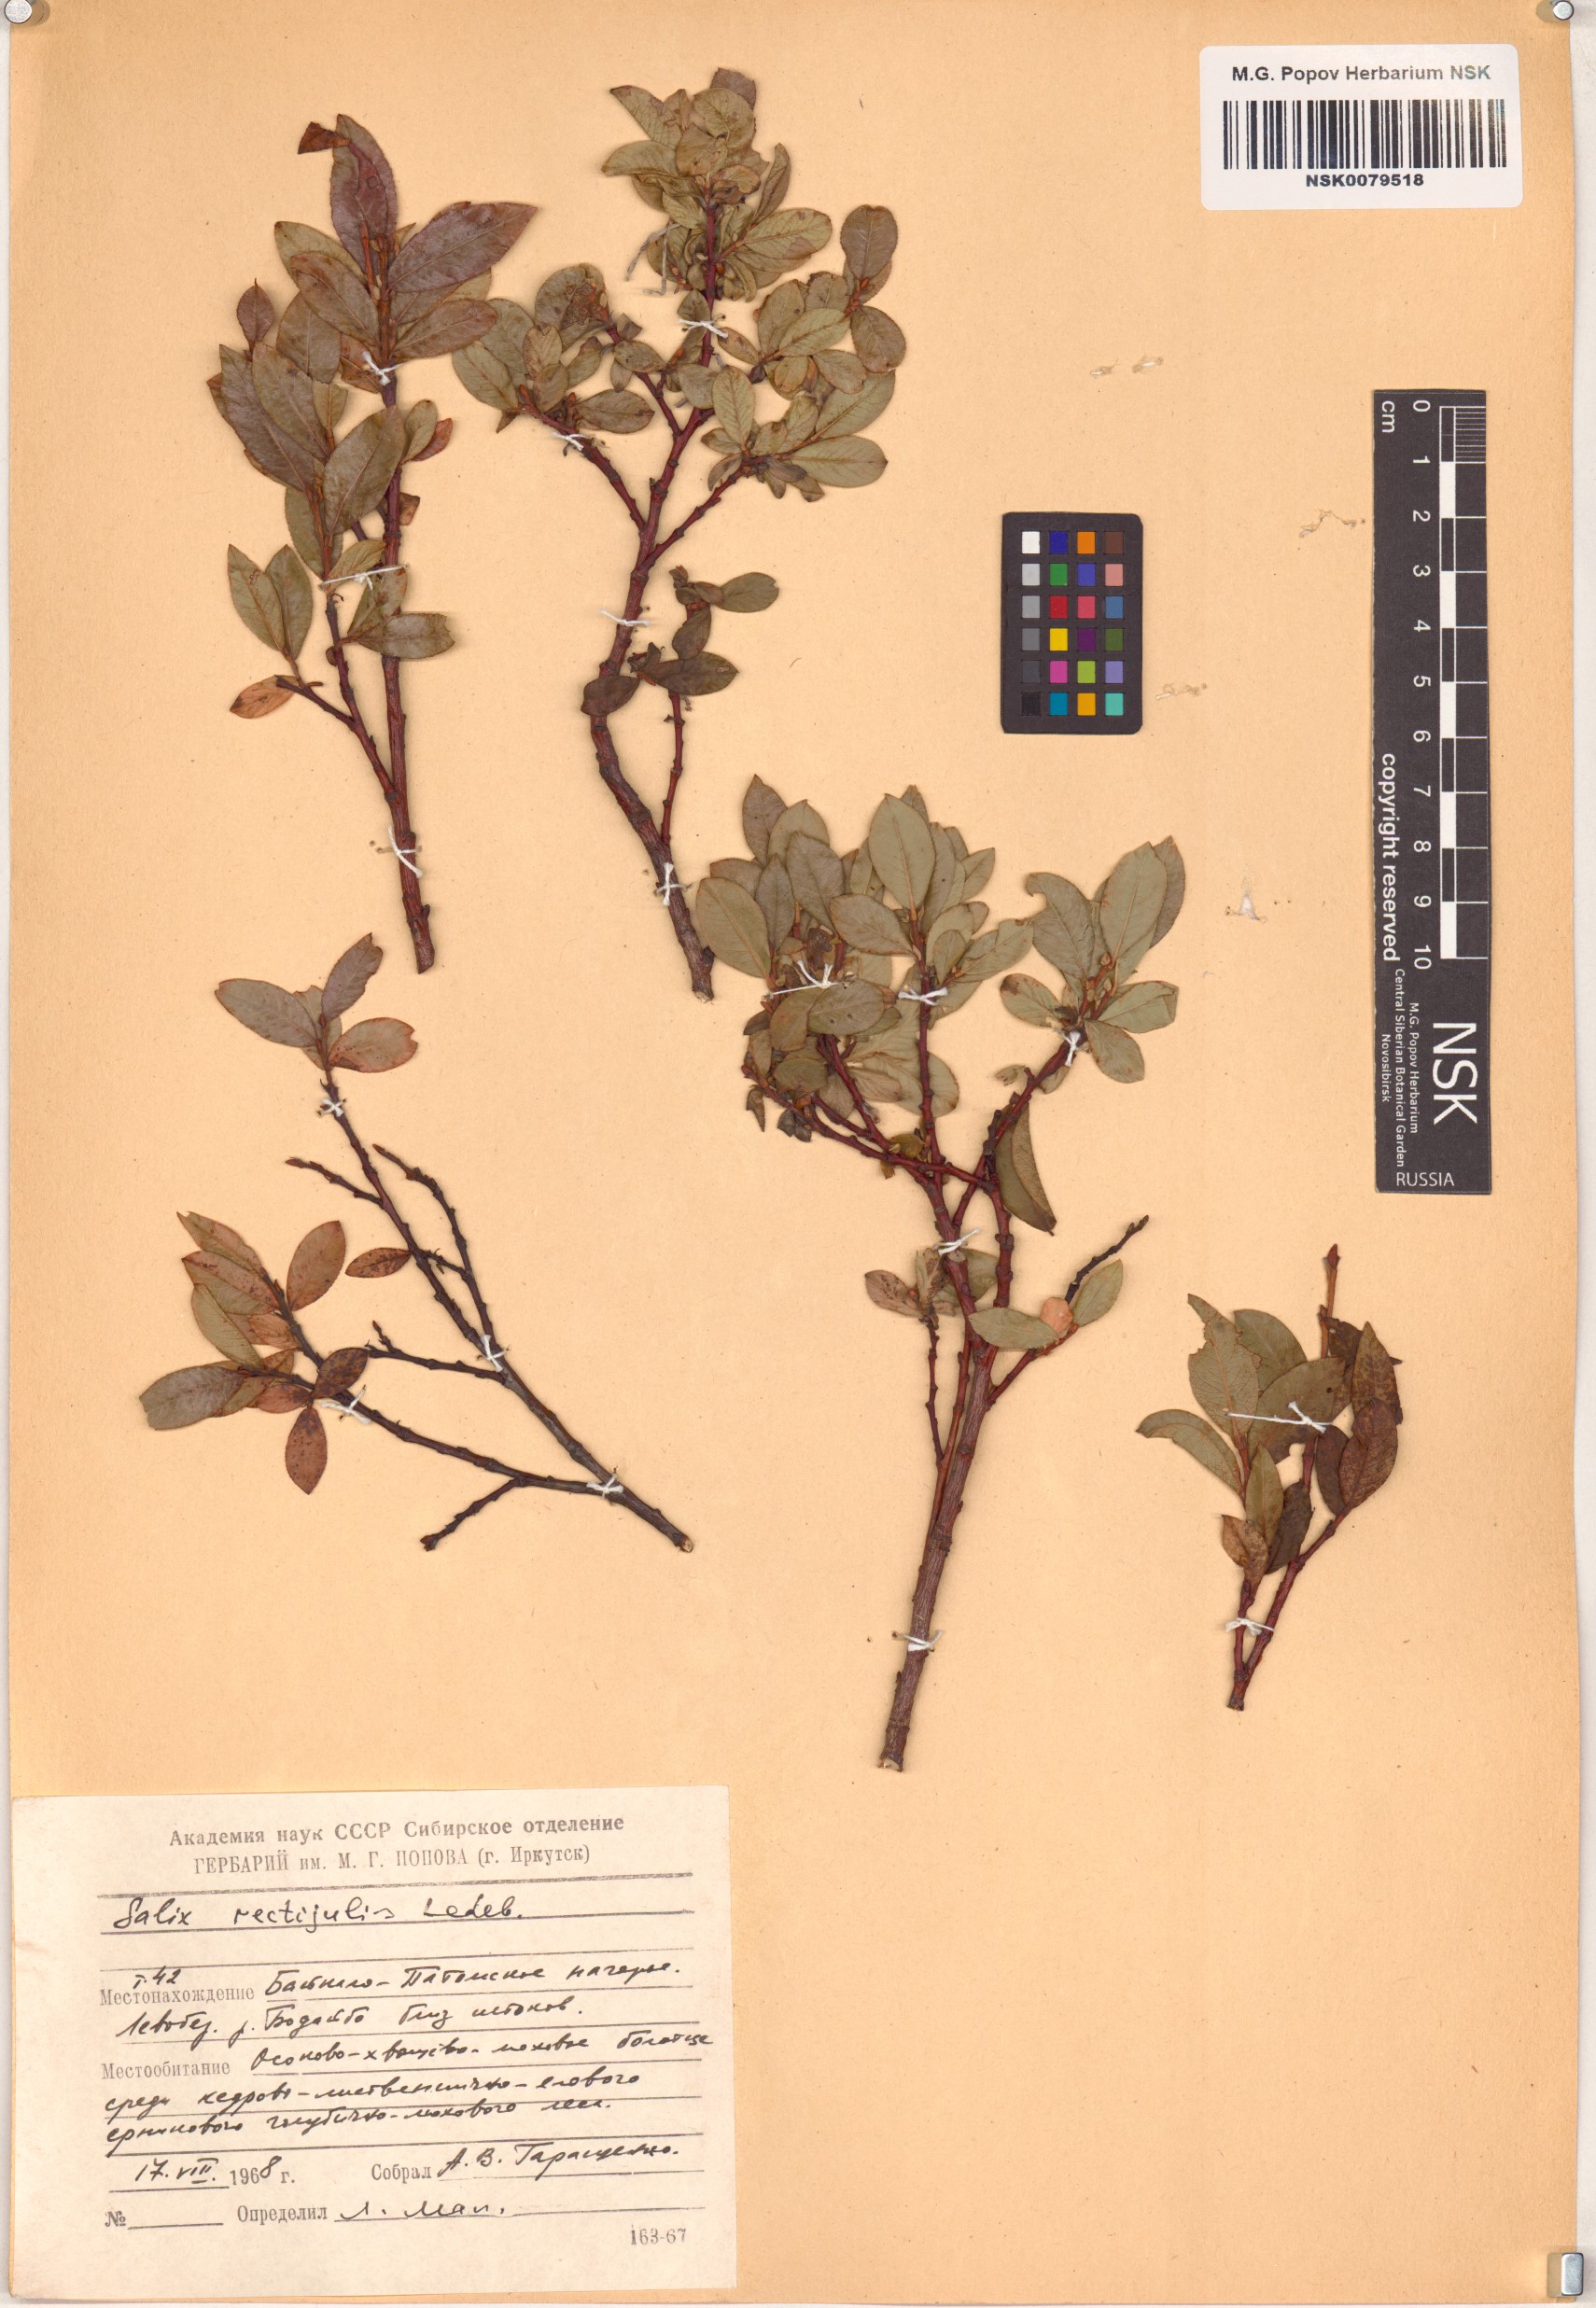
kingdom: Plantae
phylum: Tracheophyta
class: Magnoliopsida
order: Malpighiales
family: Salicaceae
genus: Salix
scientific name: Salix rectijulis
